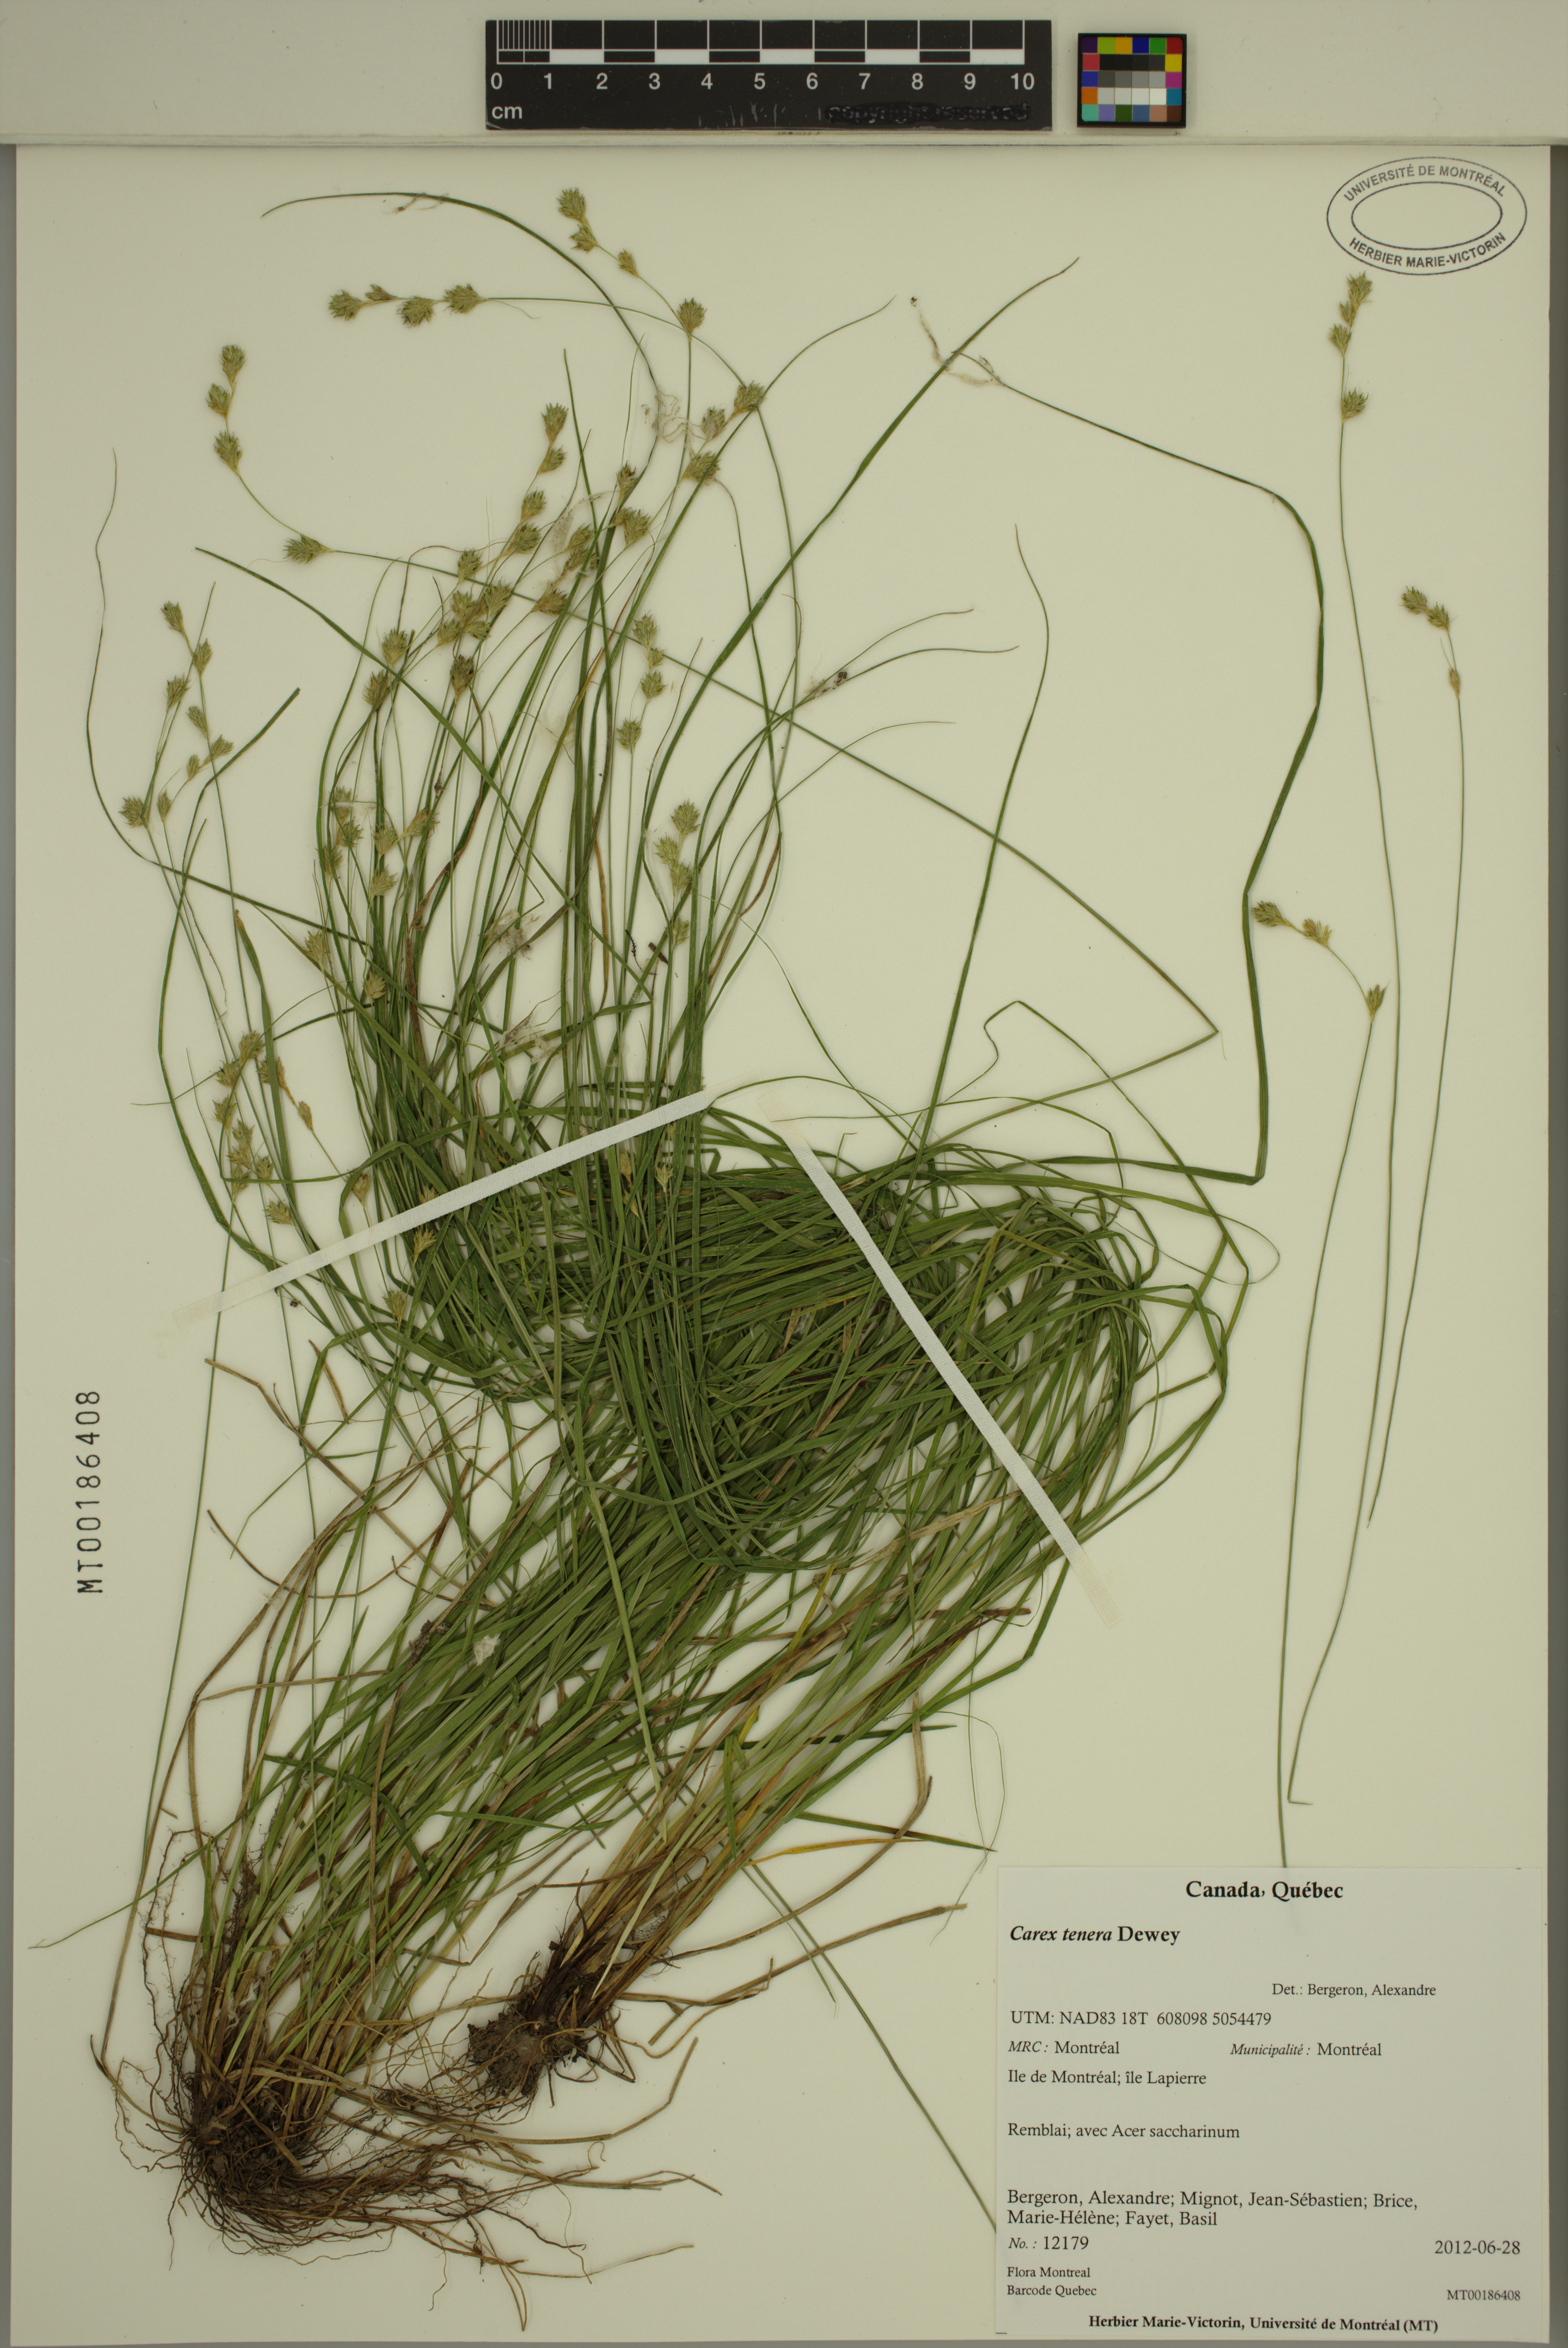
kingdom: Plantae
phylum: Tracheophyta
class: Liliopsida
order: Poales
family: Cyperaceae
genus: Carex
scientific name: Carex tenera
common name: Broad-fruited sedge
